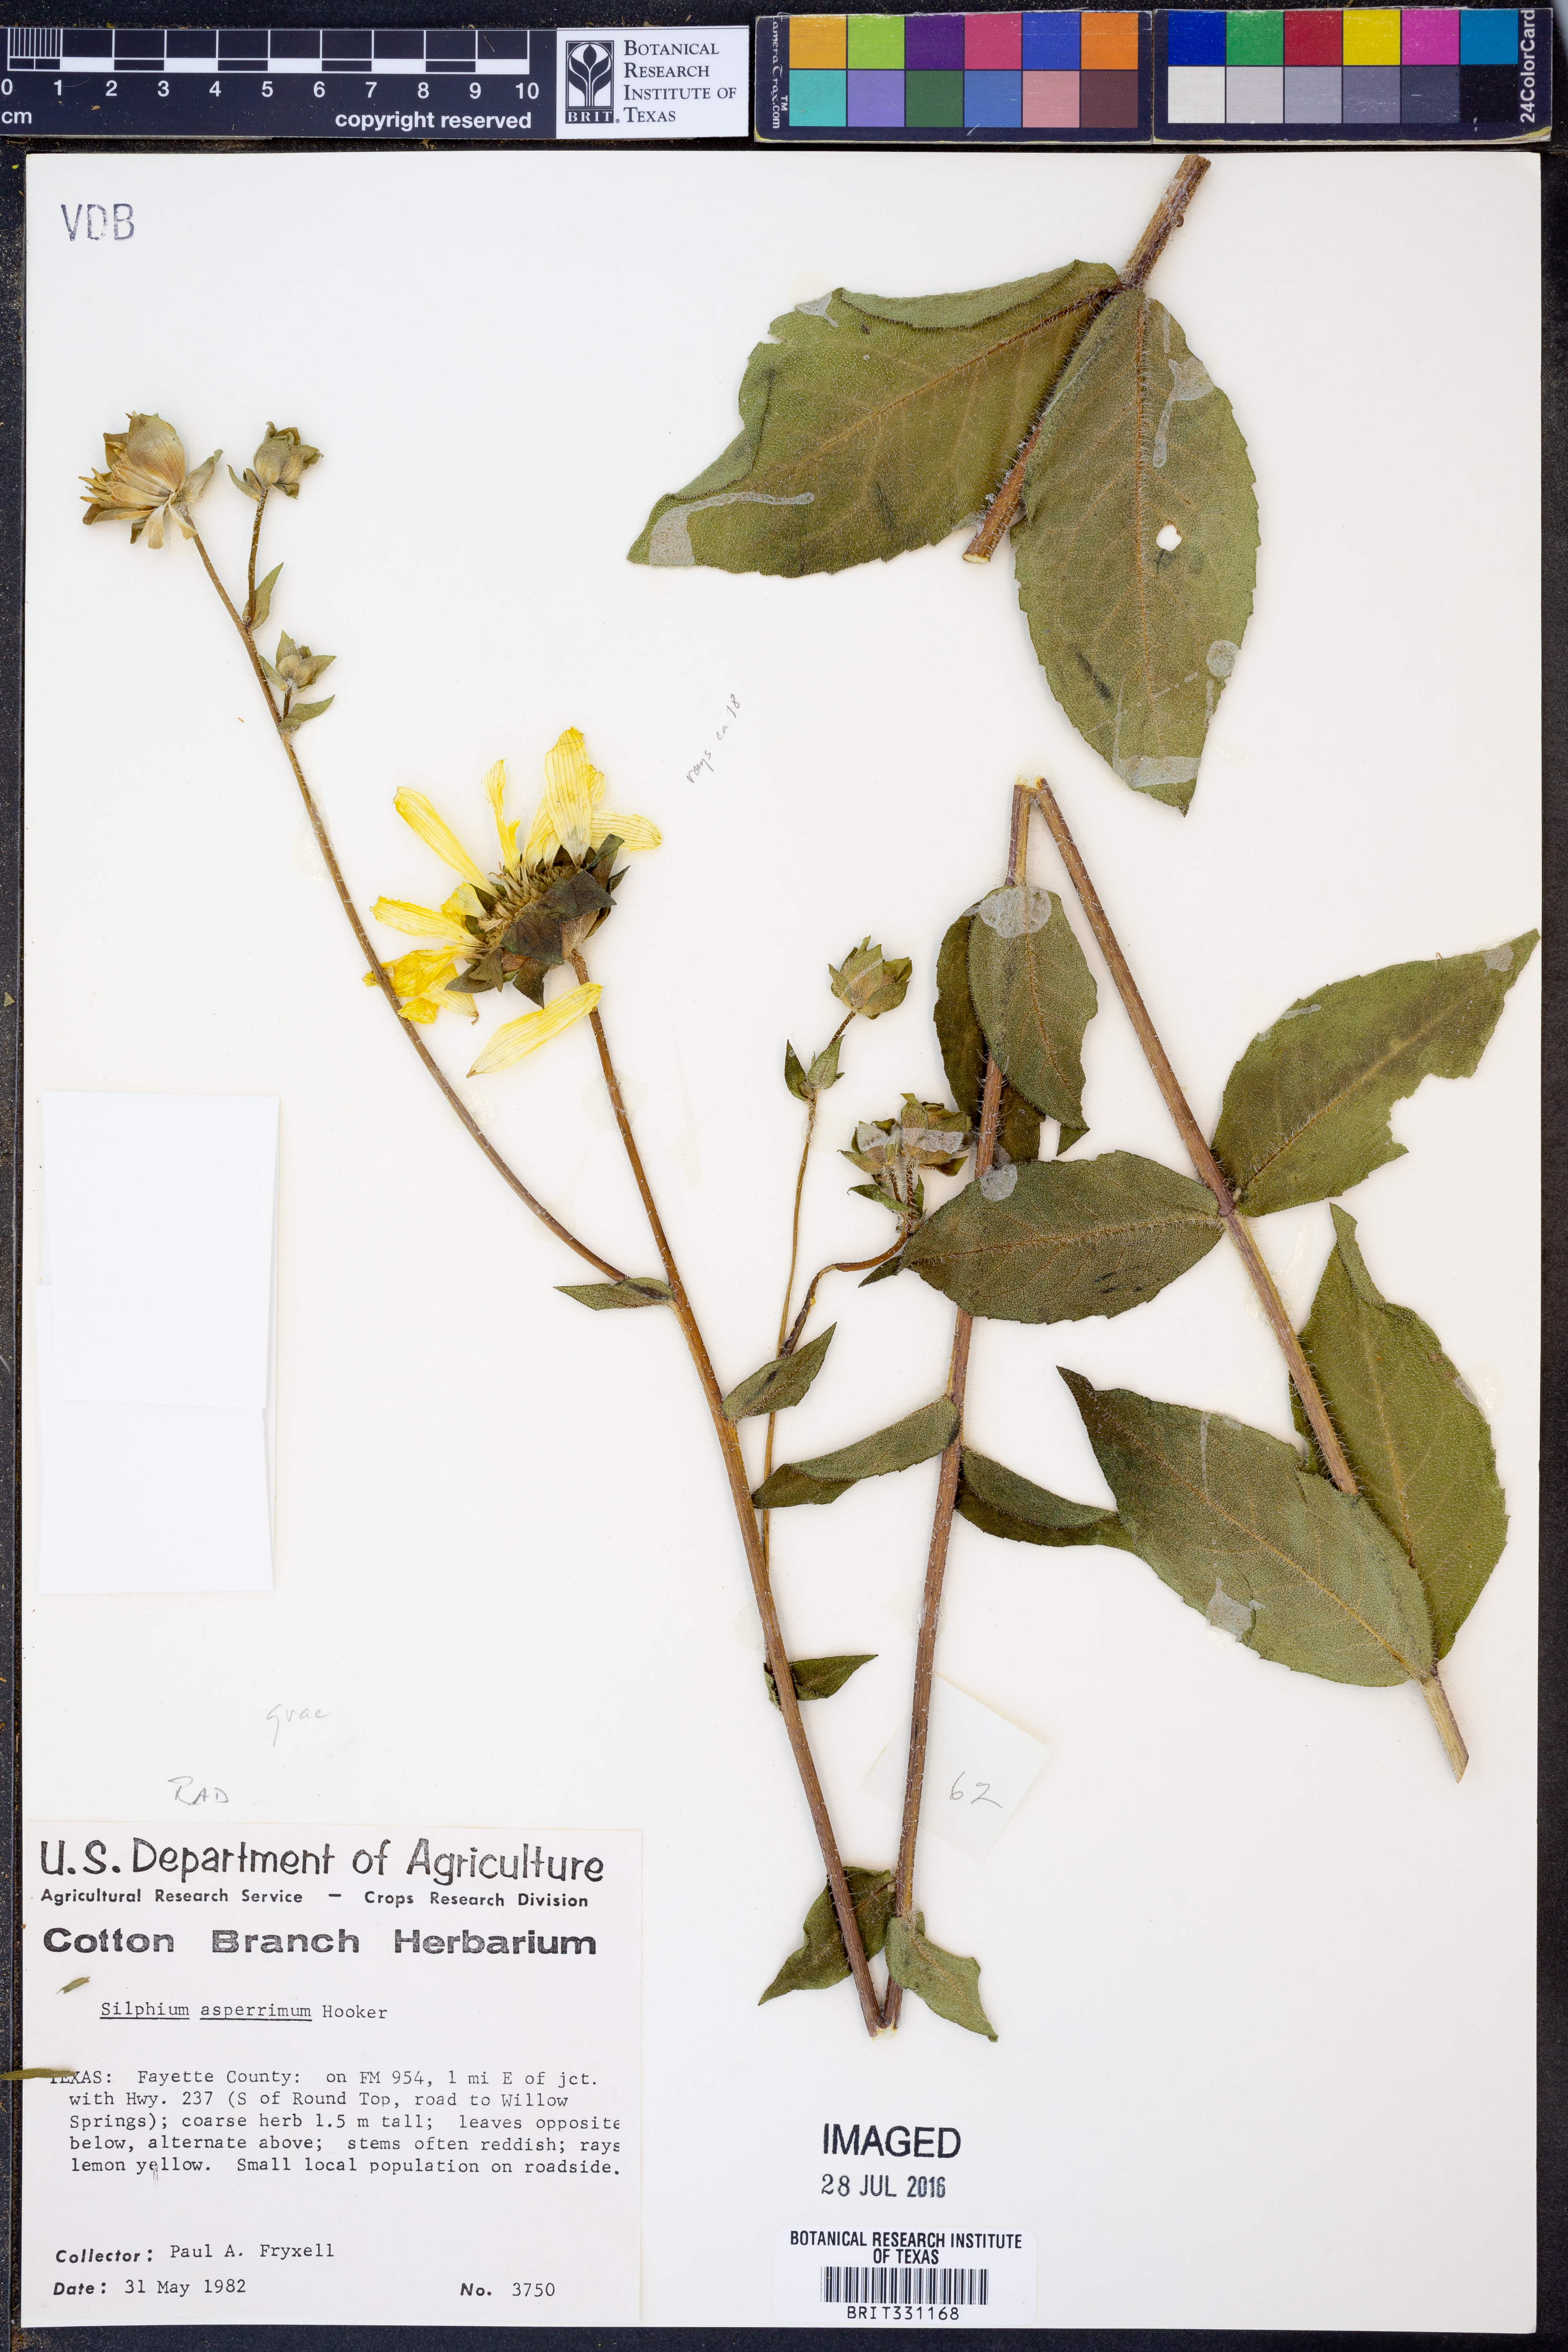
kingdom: Plantae
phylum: Tracheophyta
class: Magnoliopsida
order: Asterales
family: Asteraceae
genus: Silphium
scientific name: Silphium asperrimum
